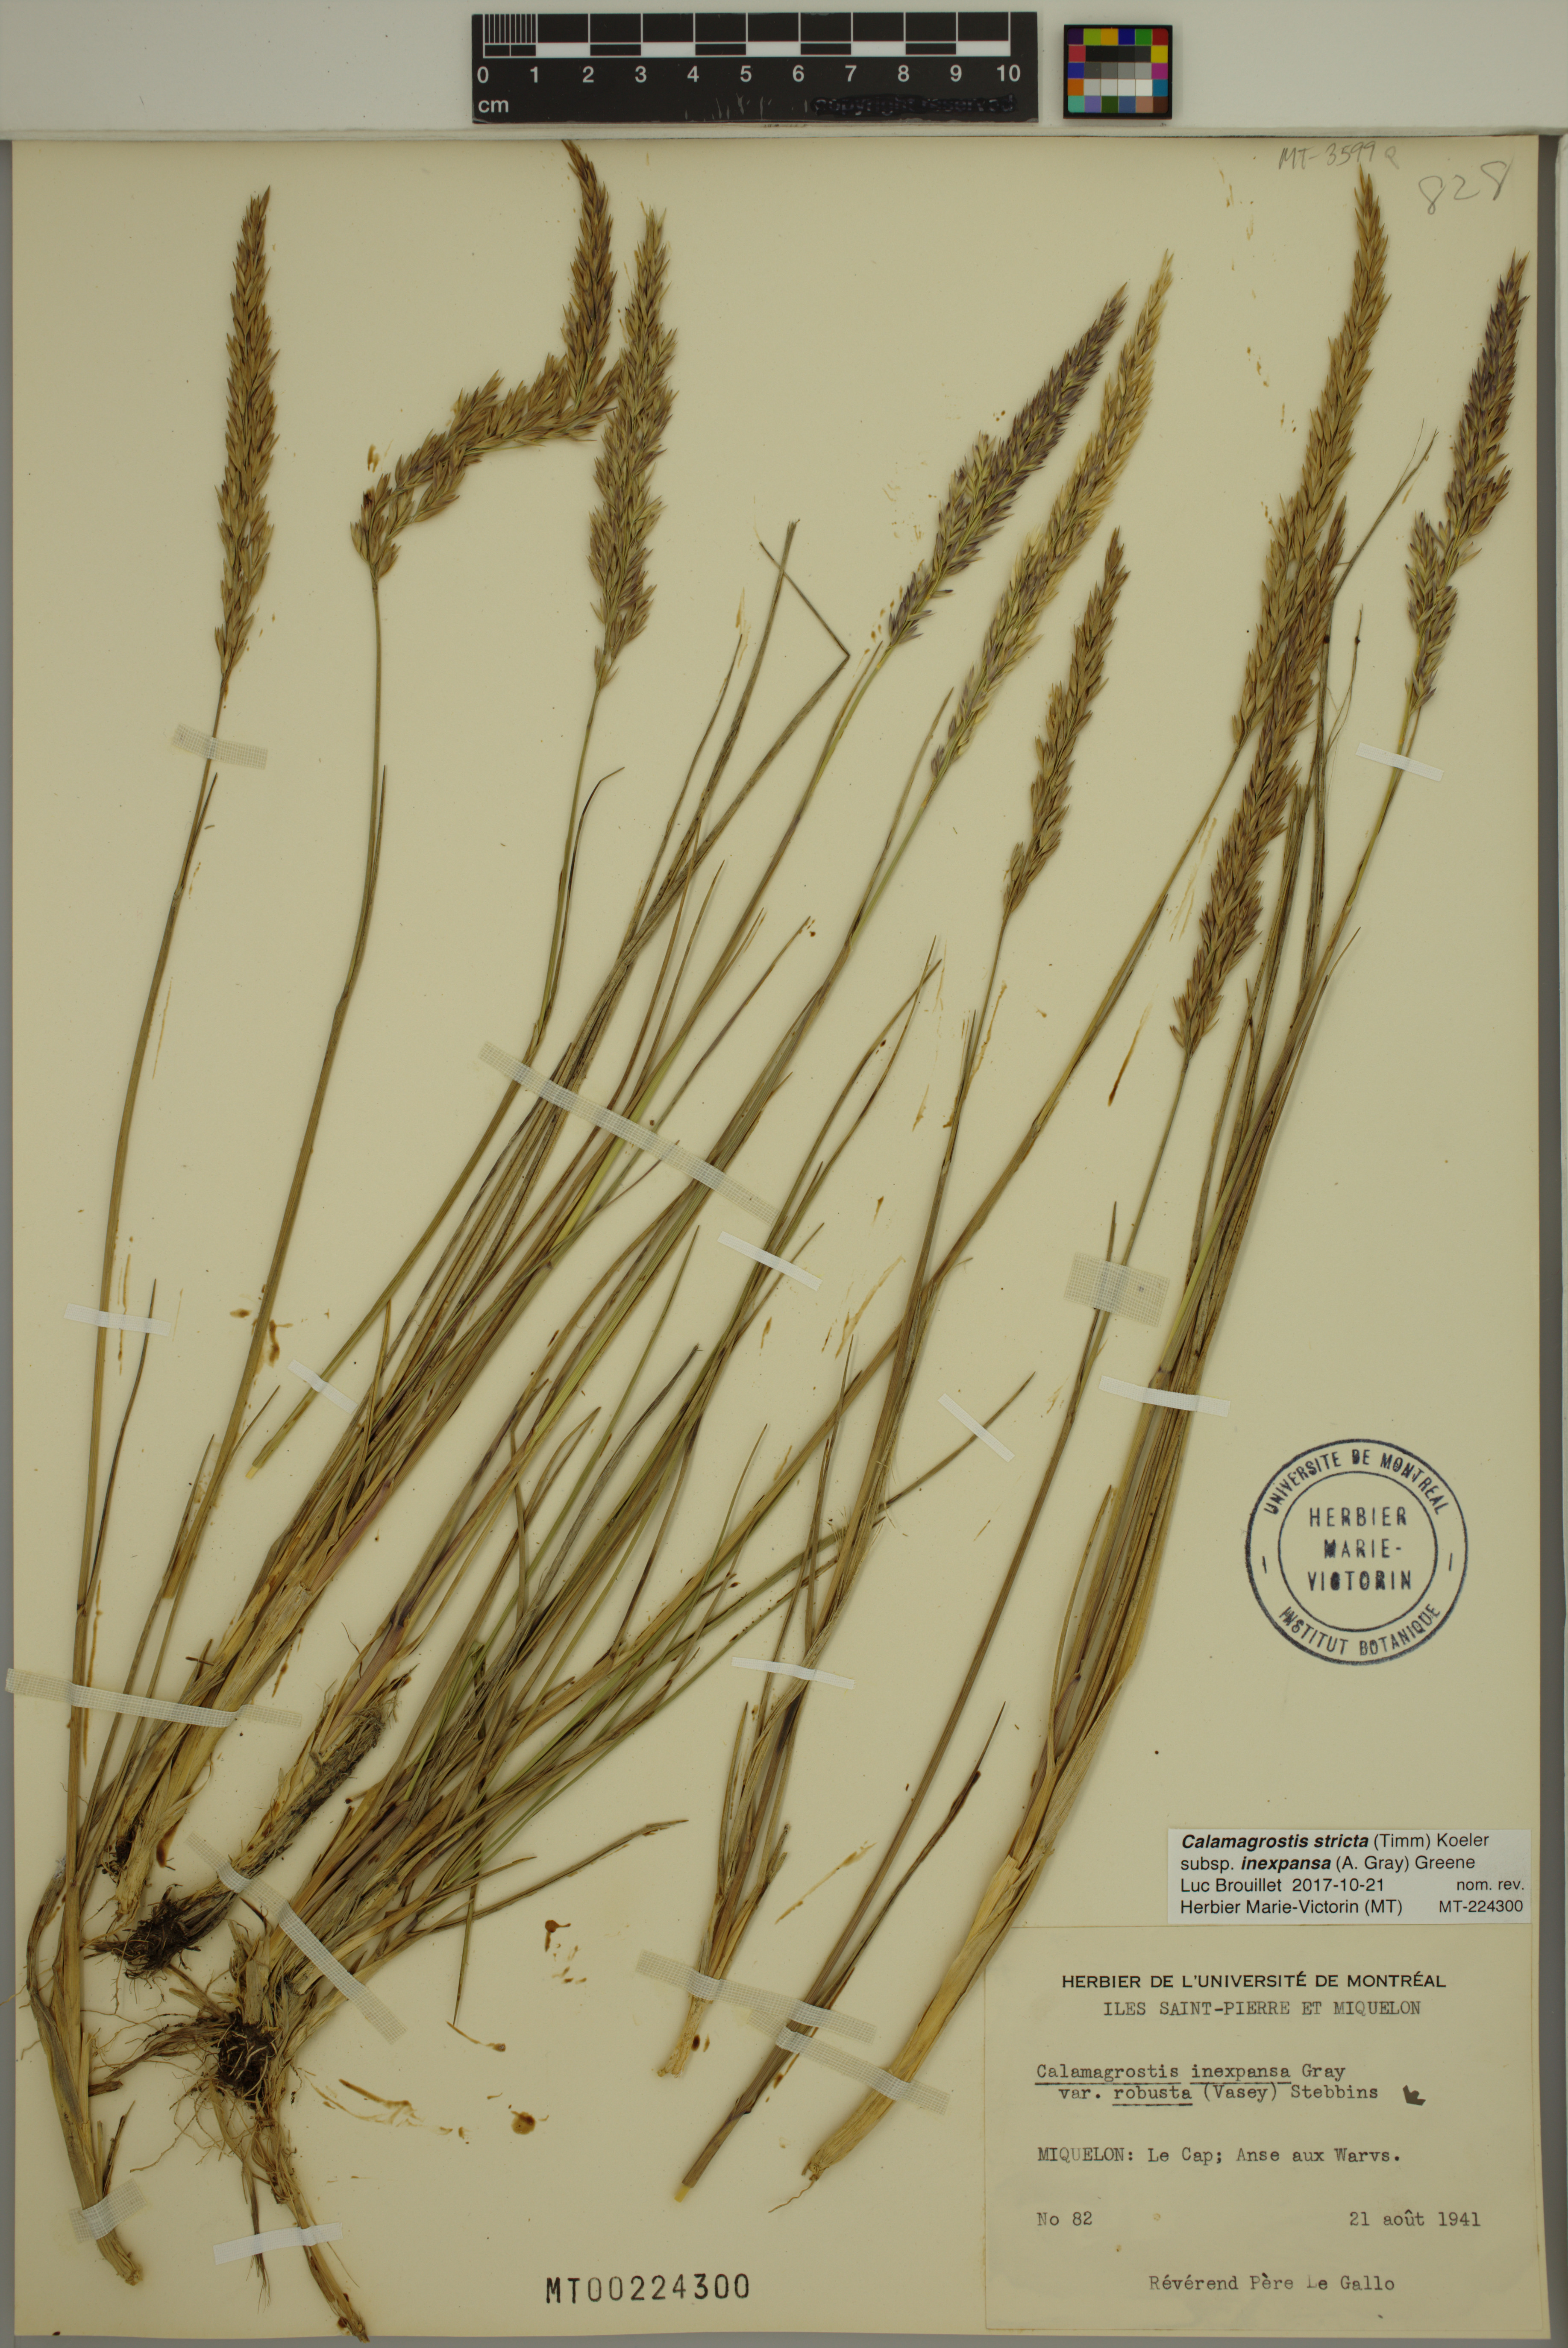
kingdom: Plantae
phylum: Tracheophyta
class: Liliopsida
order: Poales
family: Poaceae
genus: Calamagrostis
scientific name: Calamagrostis inexpansa
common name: Northern reedgrass
